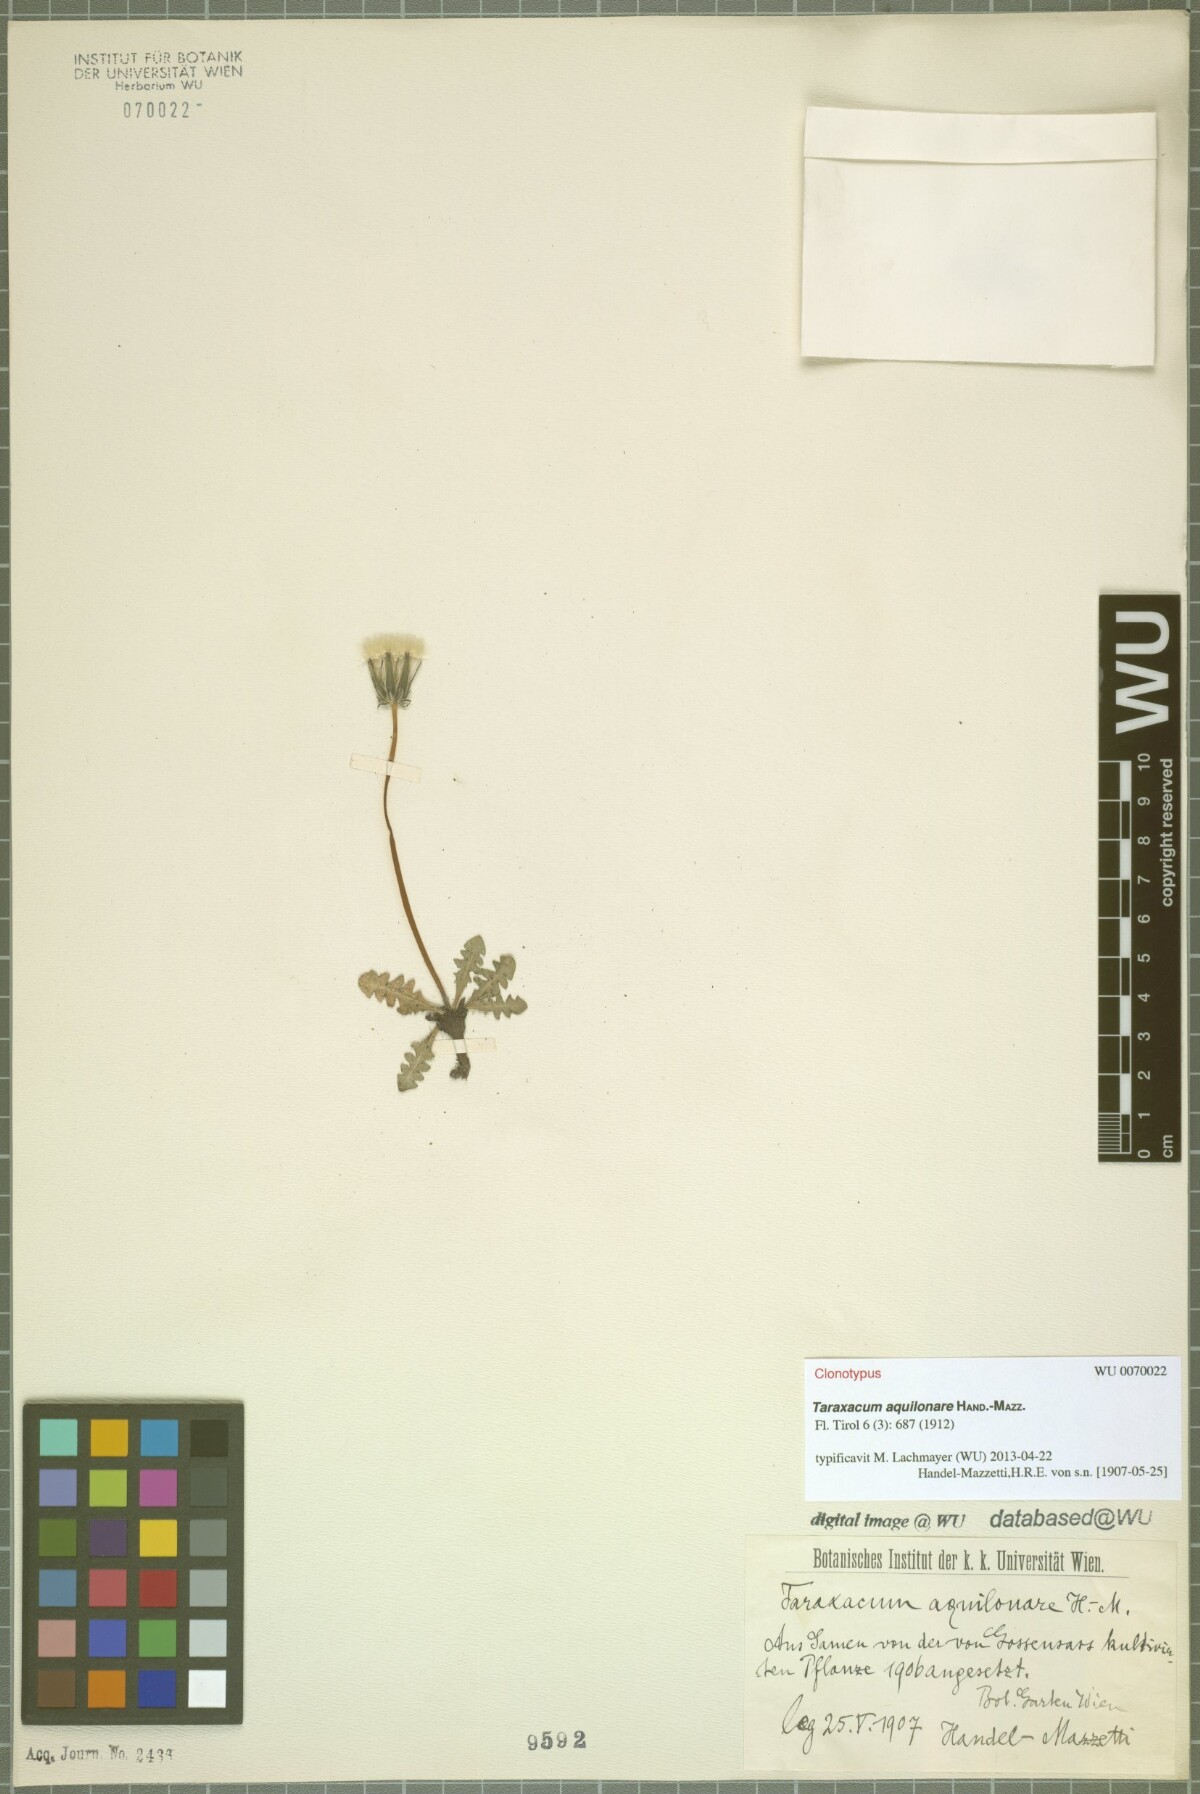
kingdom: Plantae
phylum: Tracheophyta
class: Magnoliopsida
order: Asterales
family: Asteraceae
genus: Taraxacum
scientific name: Taraxacum aquilonare
